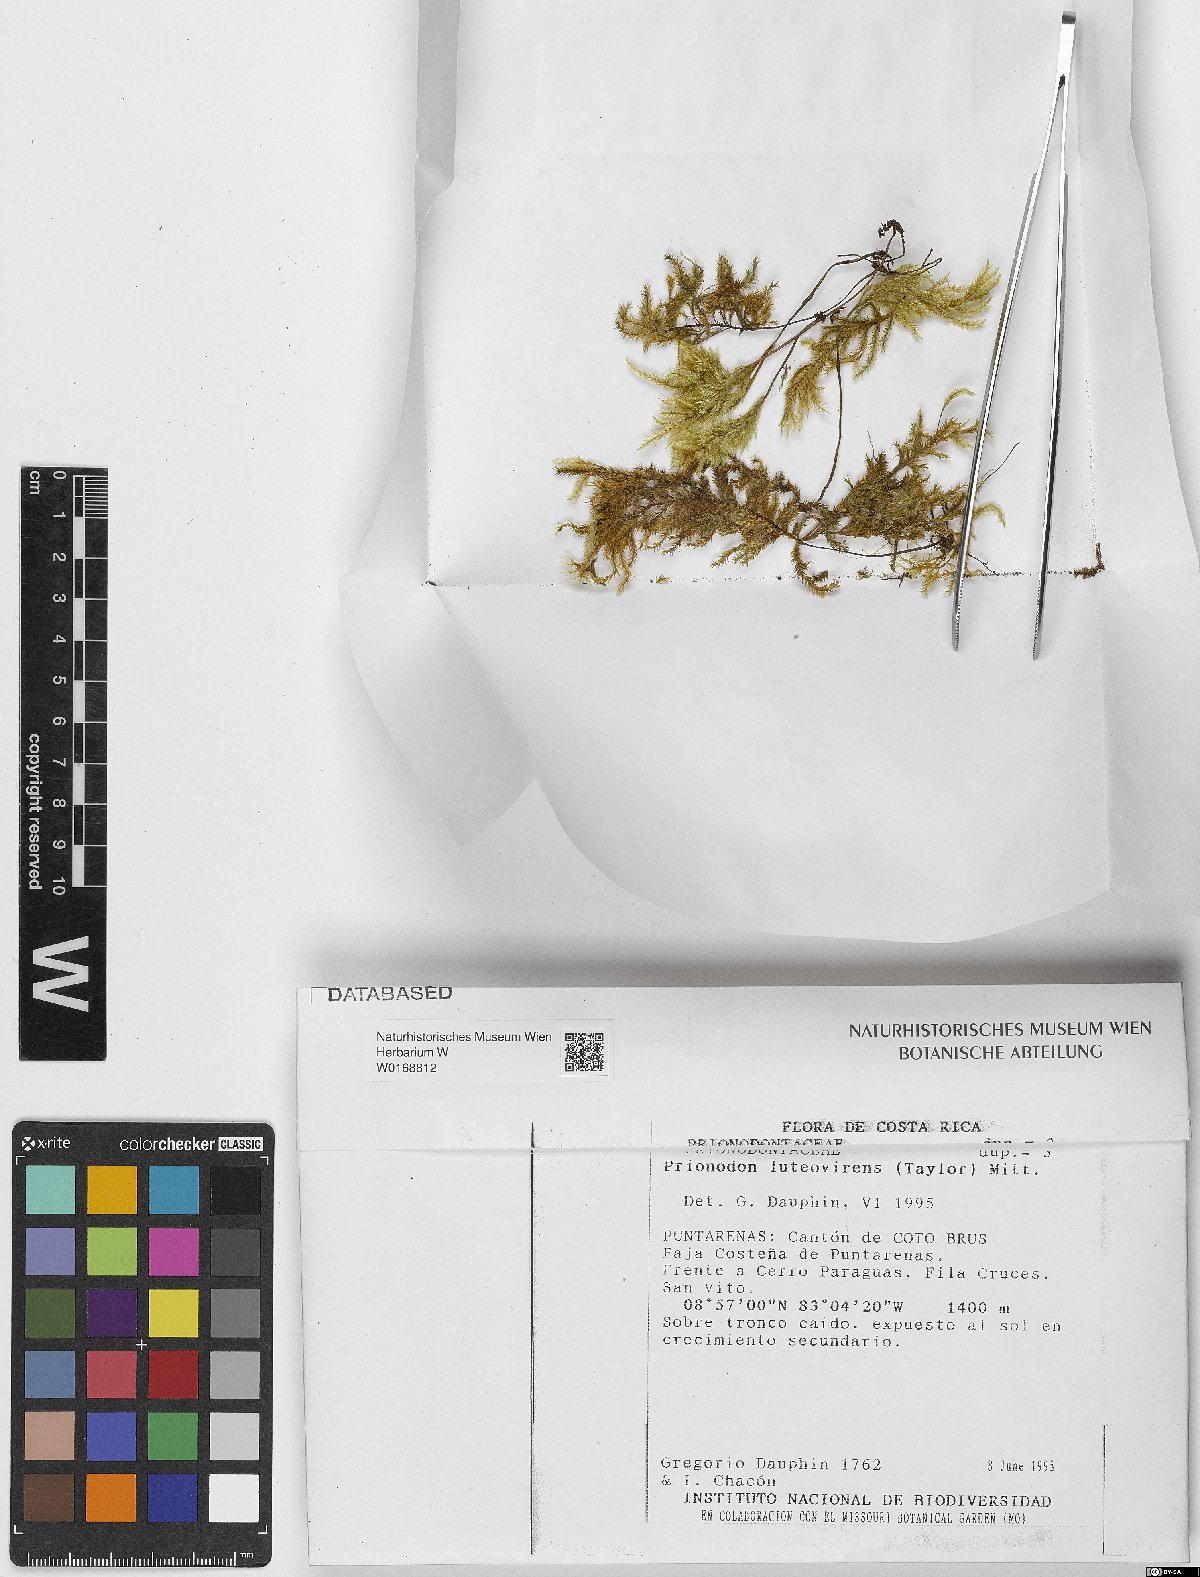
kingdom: Plantae
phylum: Bryophyta
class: Bryopsida
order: Hypnales
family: Prionodontaceae
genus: Prionodon
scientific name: Prionodon luteovirens
